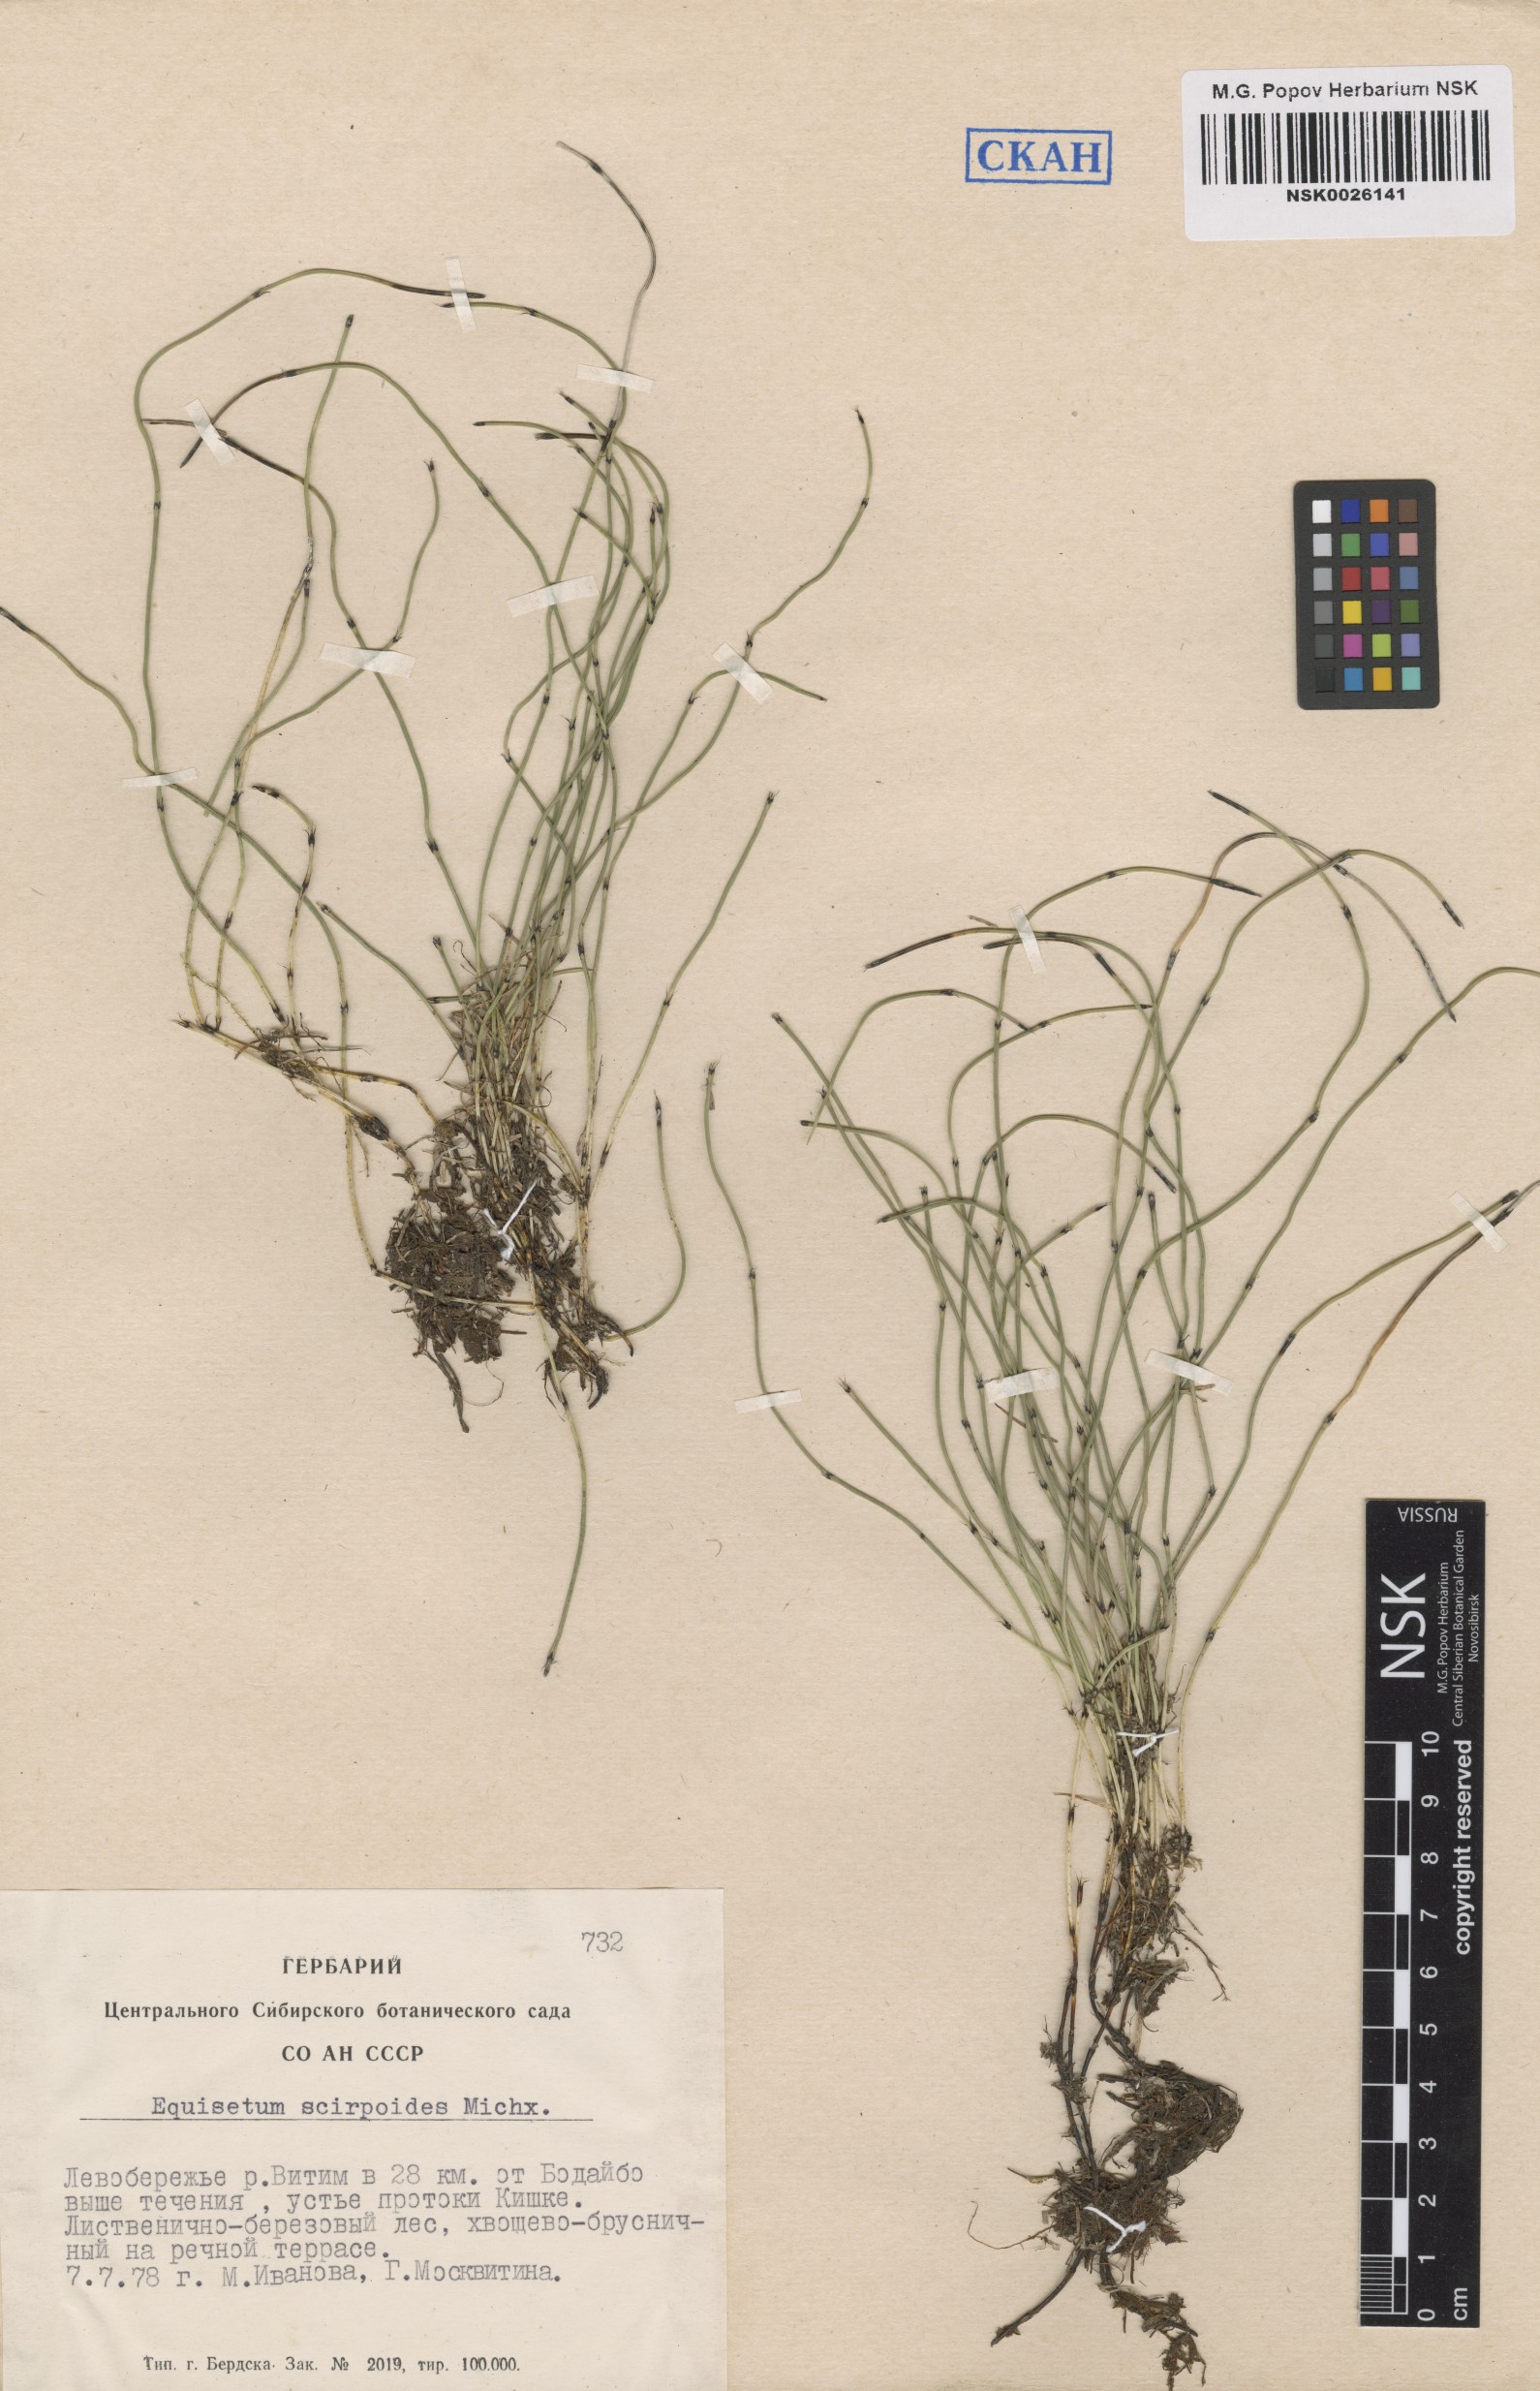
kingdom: Plantae
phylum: Tracheophyta
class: Polypodiopsida
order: Equisetales
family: Equisetaceae
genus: Equisetum
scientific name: Equisetum scirpoides
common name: Delicate horsetail
